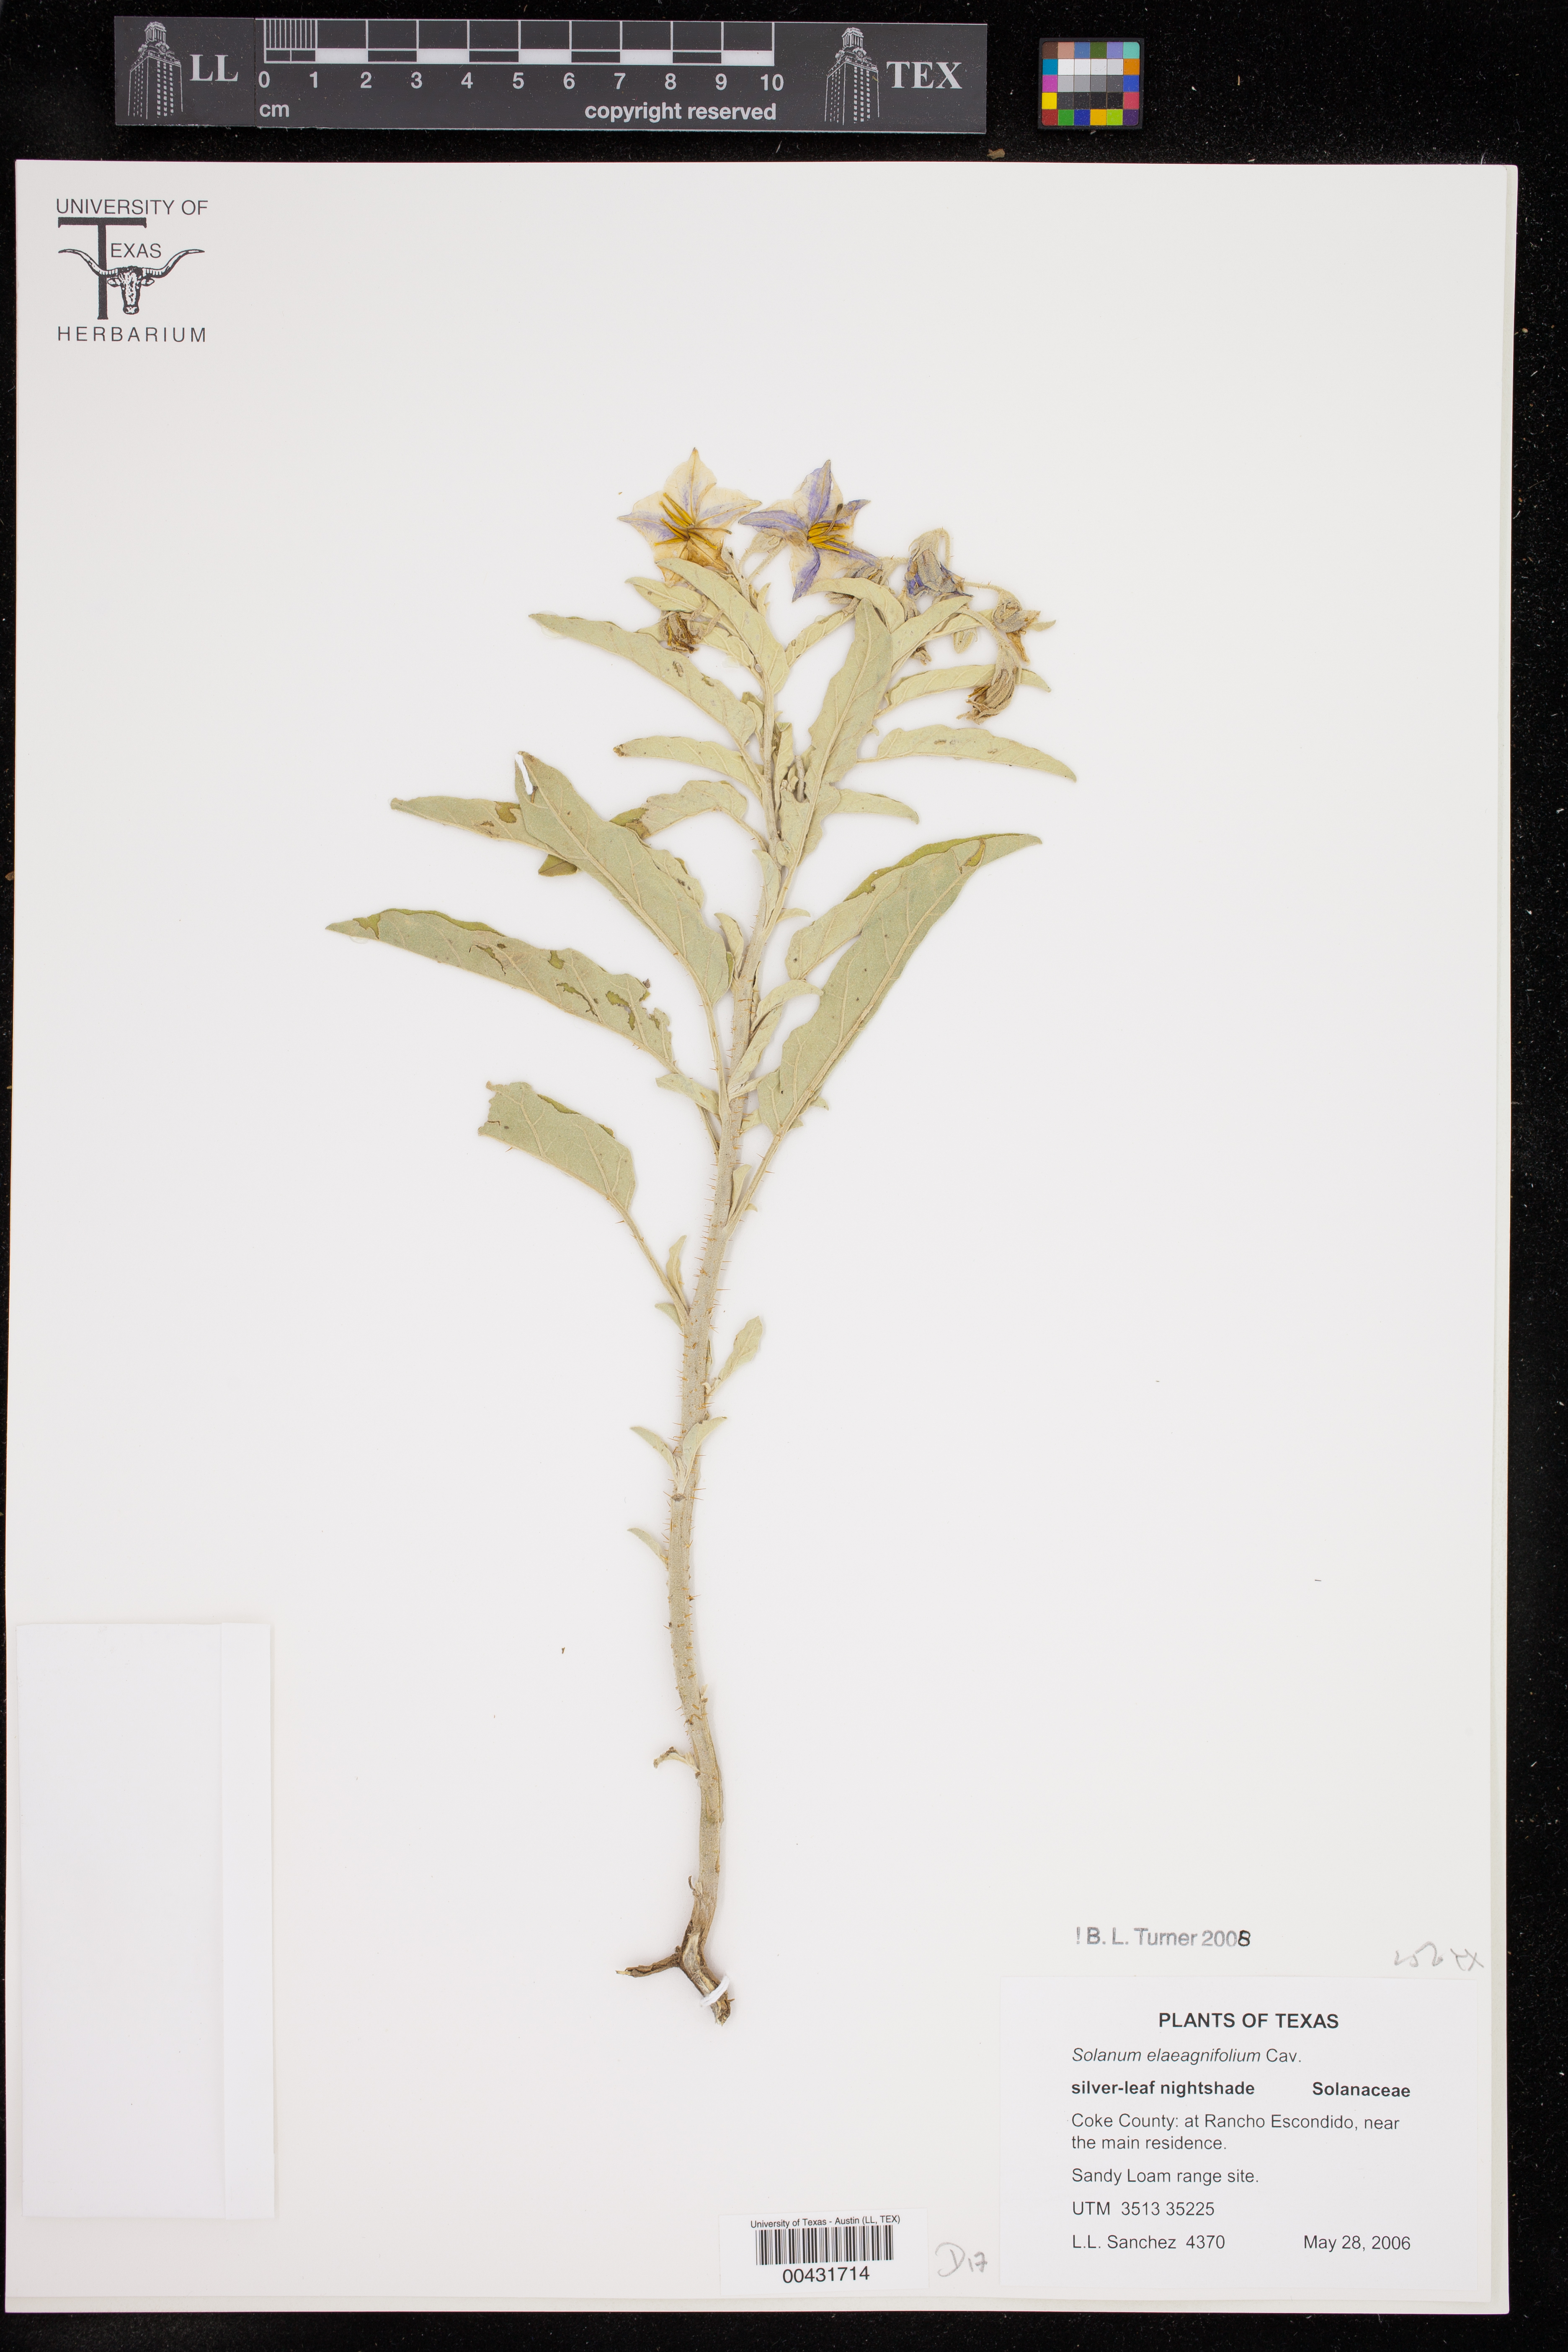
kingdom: Plantae
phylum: Tracheophyta
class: Magnoliopsida
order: Solanales
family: Solanaceae
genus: Solanum
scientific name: Solanum elaeagnifolium
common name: Silverleaf nightshade
